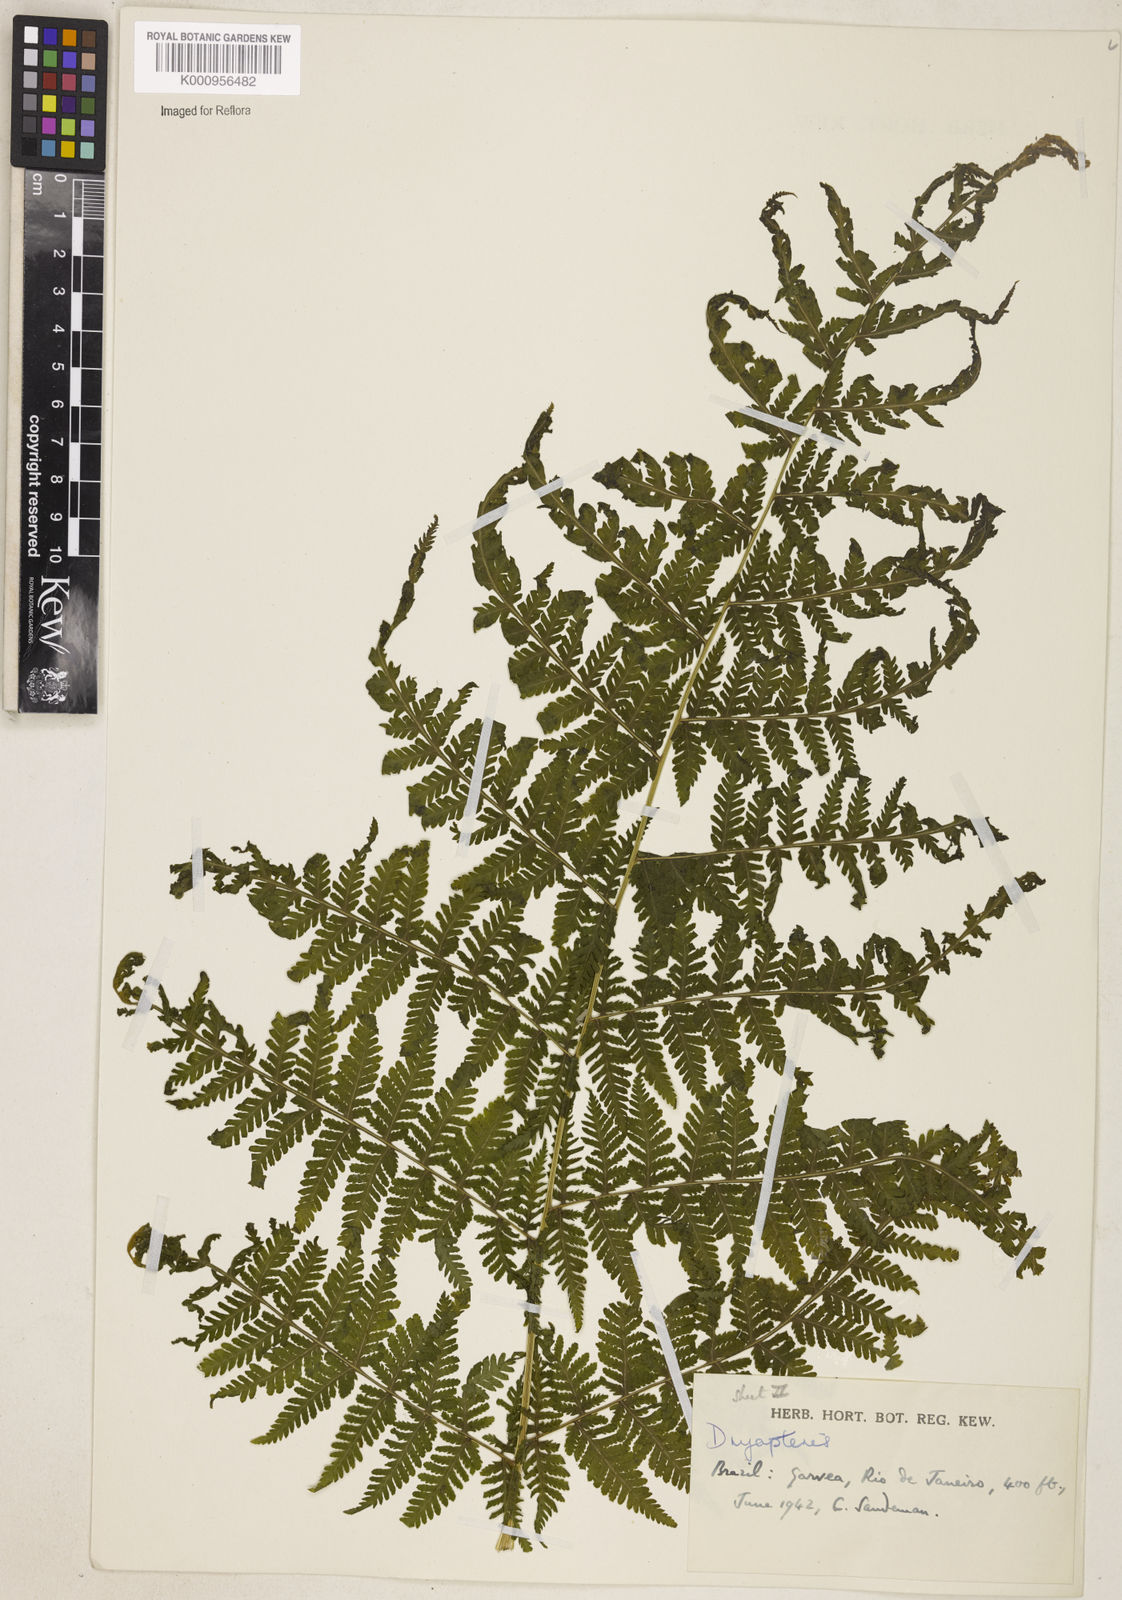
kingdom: Plantae
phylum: Tracheophyta
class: Polypodiopsida
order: Polypodiales
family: Thelypteridaceae
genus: Macrothelypteris
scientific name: Macrothelypteris torresiana
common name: Swordfern
